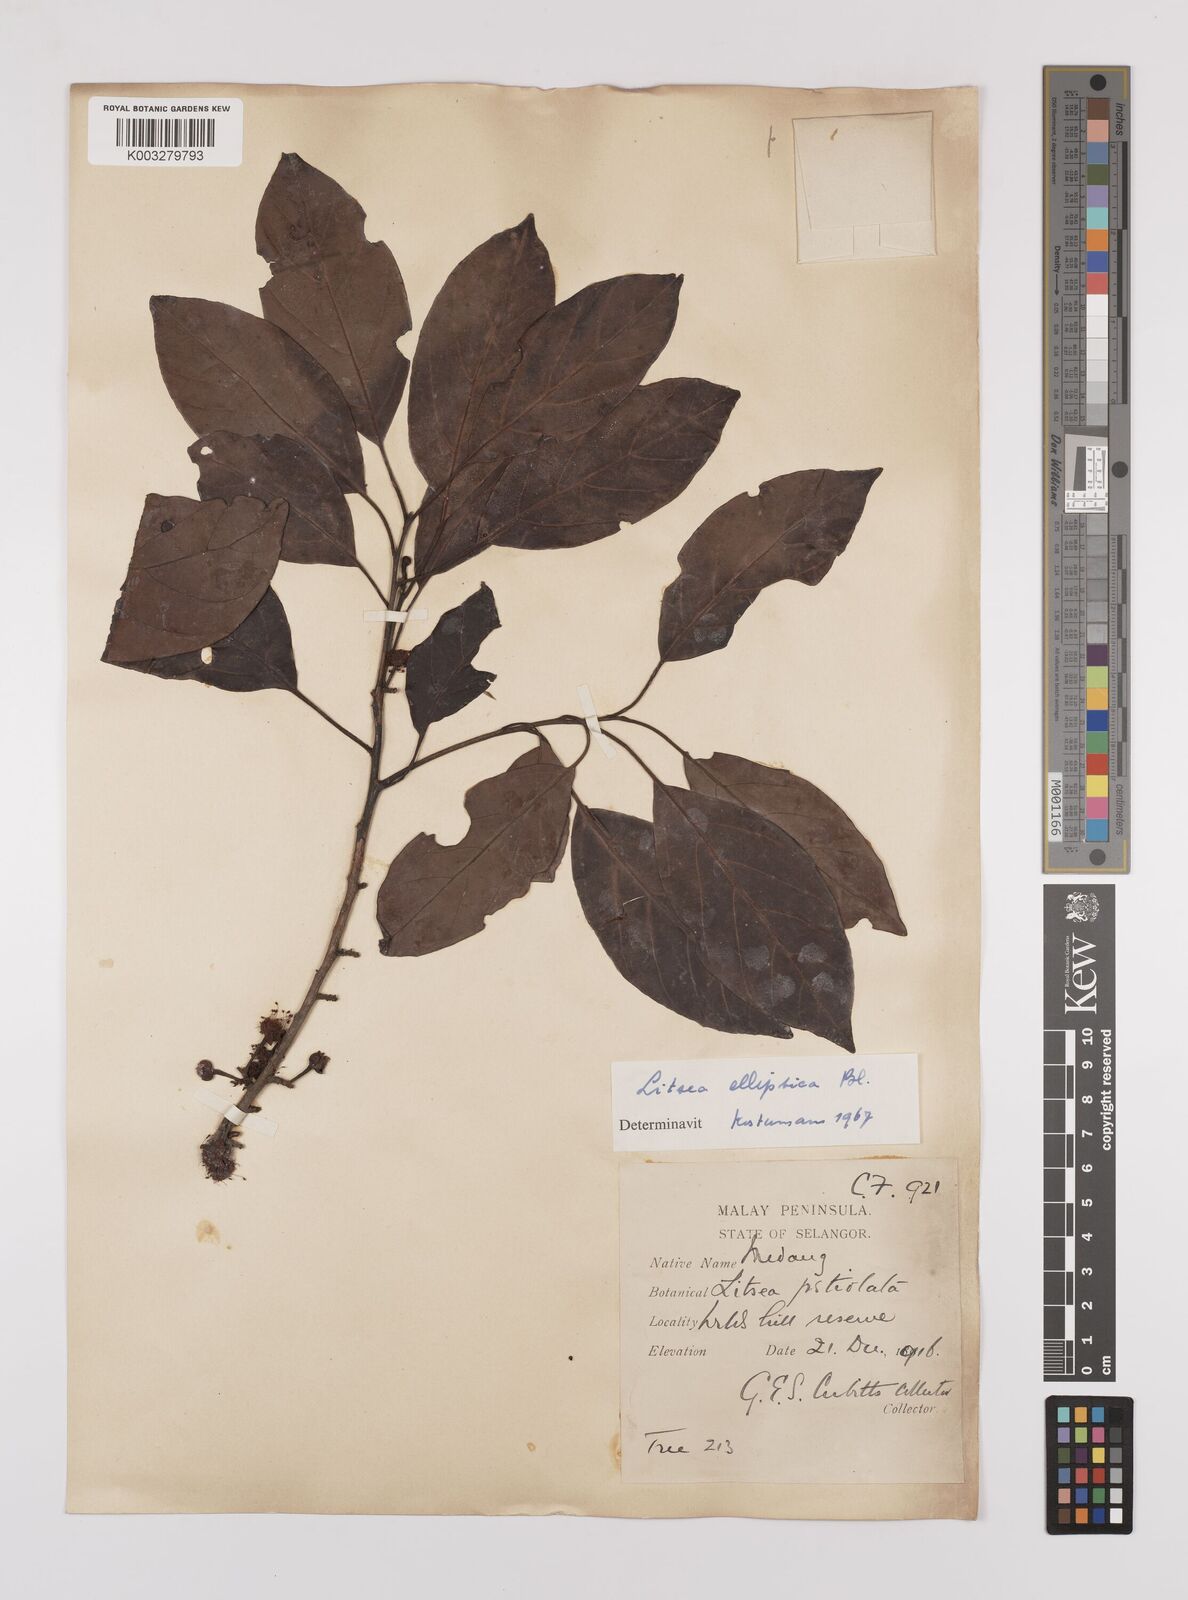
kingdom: Plantae
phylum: Tracheophyta
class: Magnoliopsida
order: Laurales
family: Lauraceae
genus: Litsea
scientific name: Litsea elliptica
